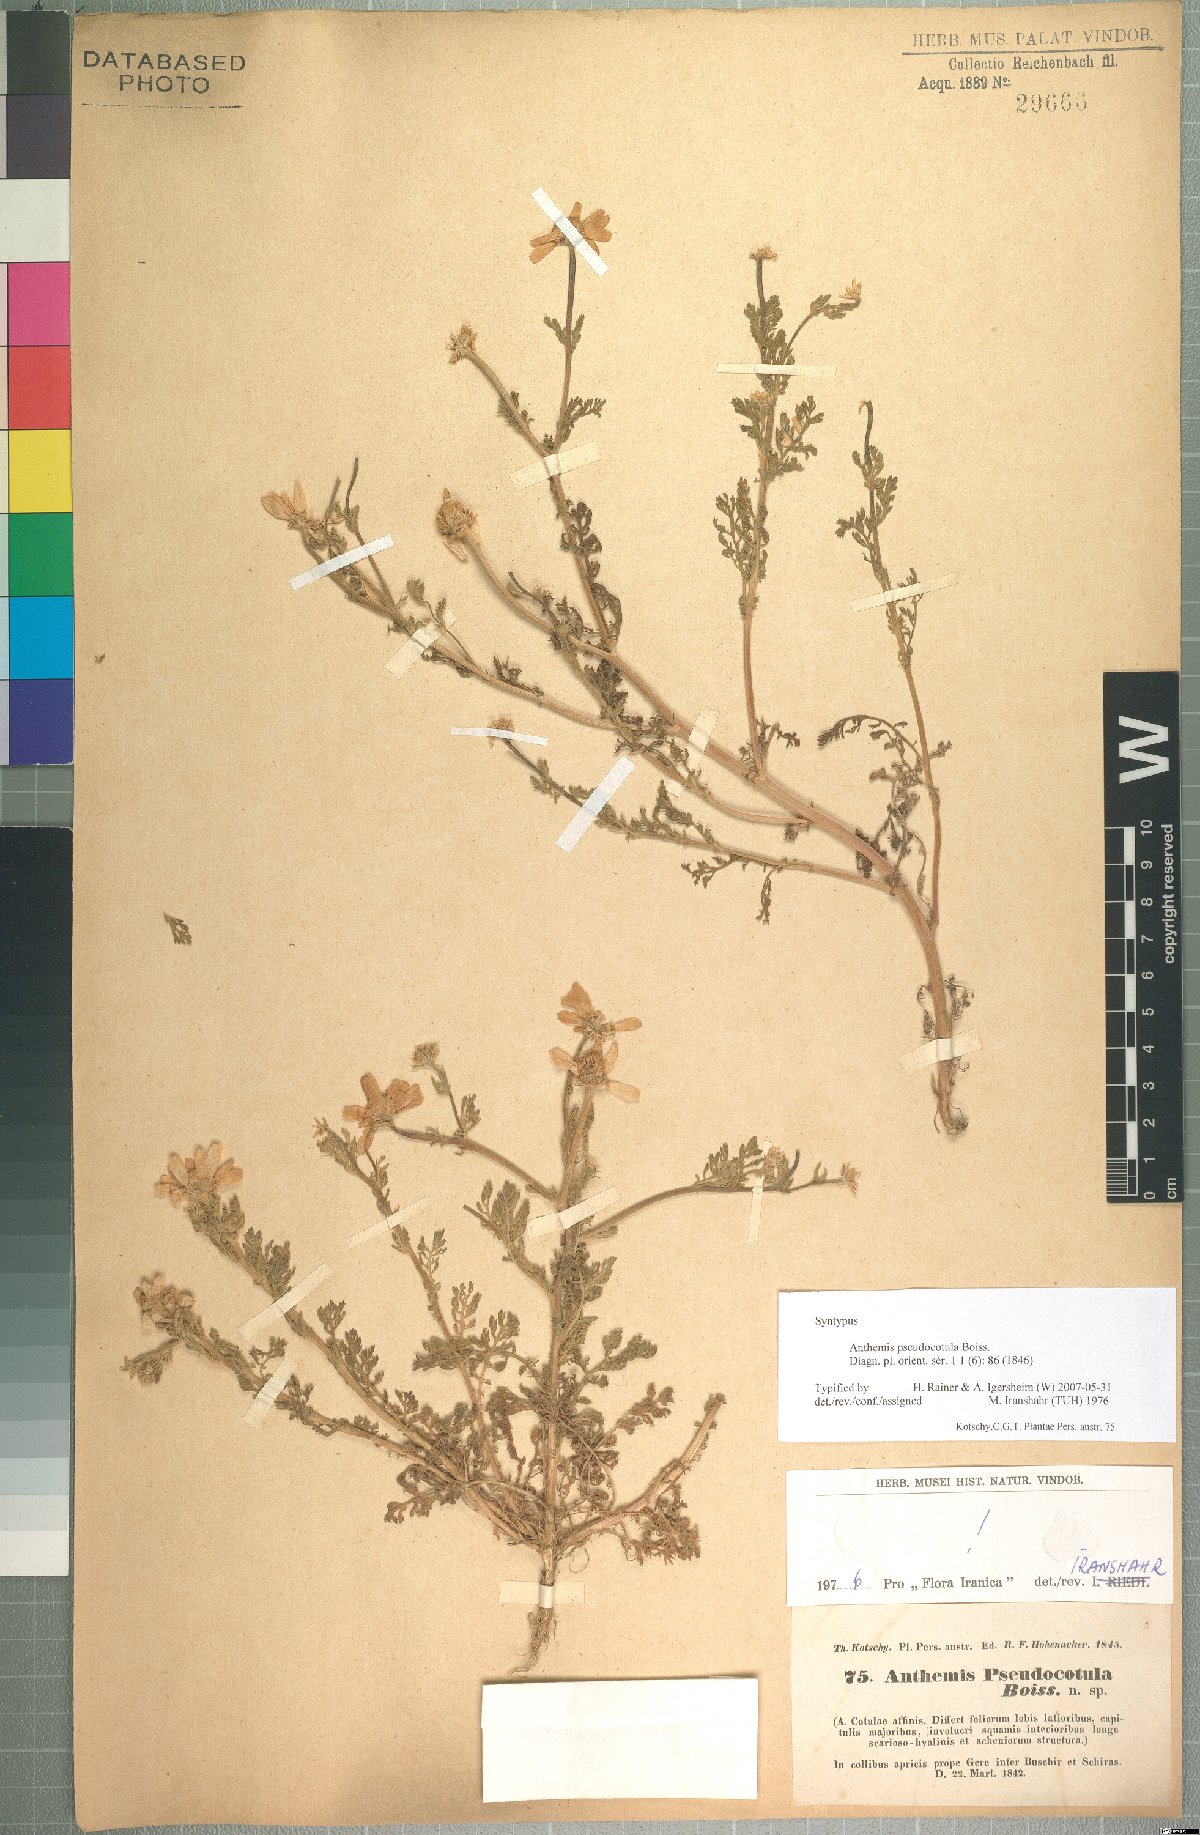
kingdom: Plantae
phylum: Tracheophyta
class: Magnoliopsida
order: Asterales
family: Asteraceae
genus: Anthemis
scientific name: Anthemis pseudocotula
